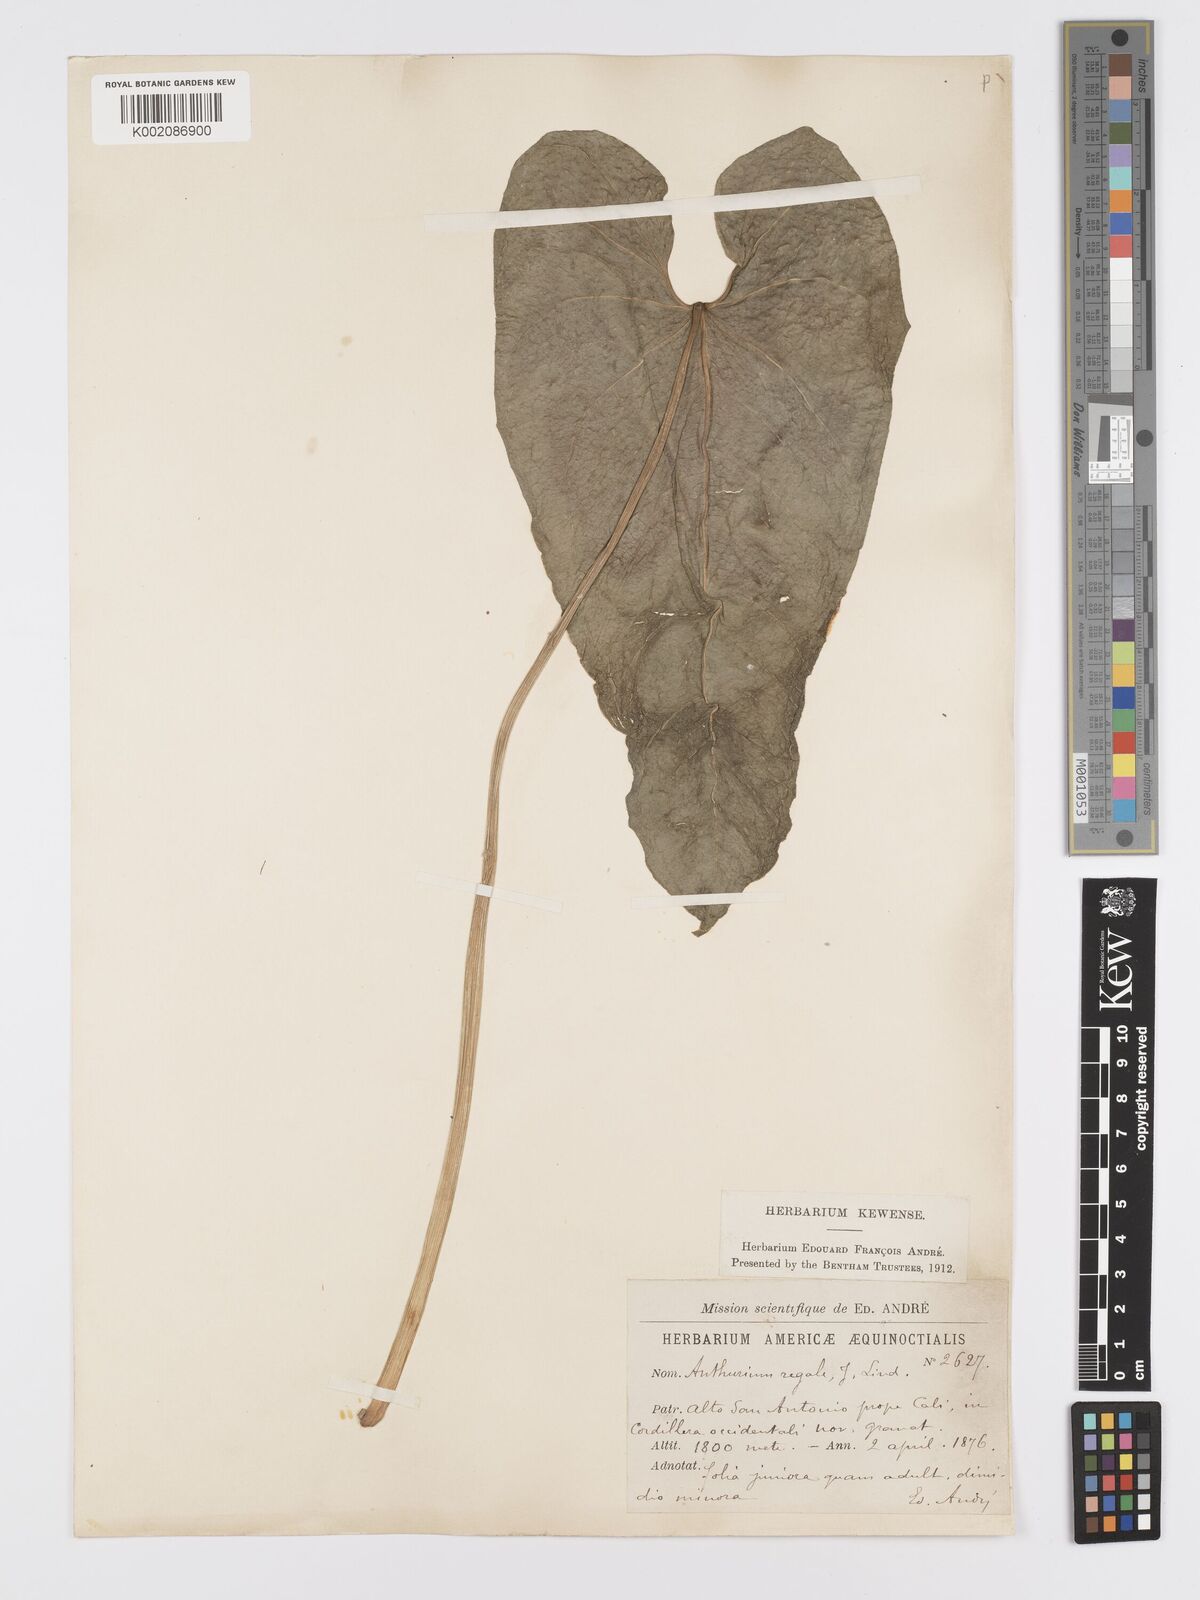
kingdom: Plantae
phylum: Tracheophyta
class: Liliopsida
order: Alismatales
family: Araceae
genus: Anthurium
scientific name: Anthurium regale
